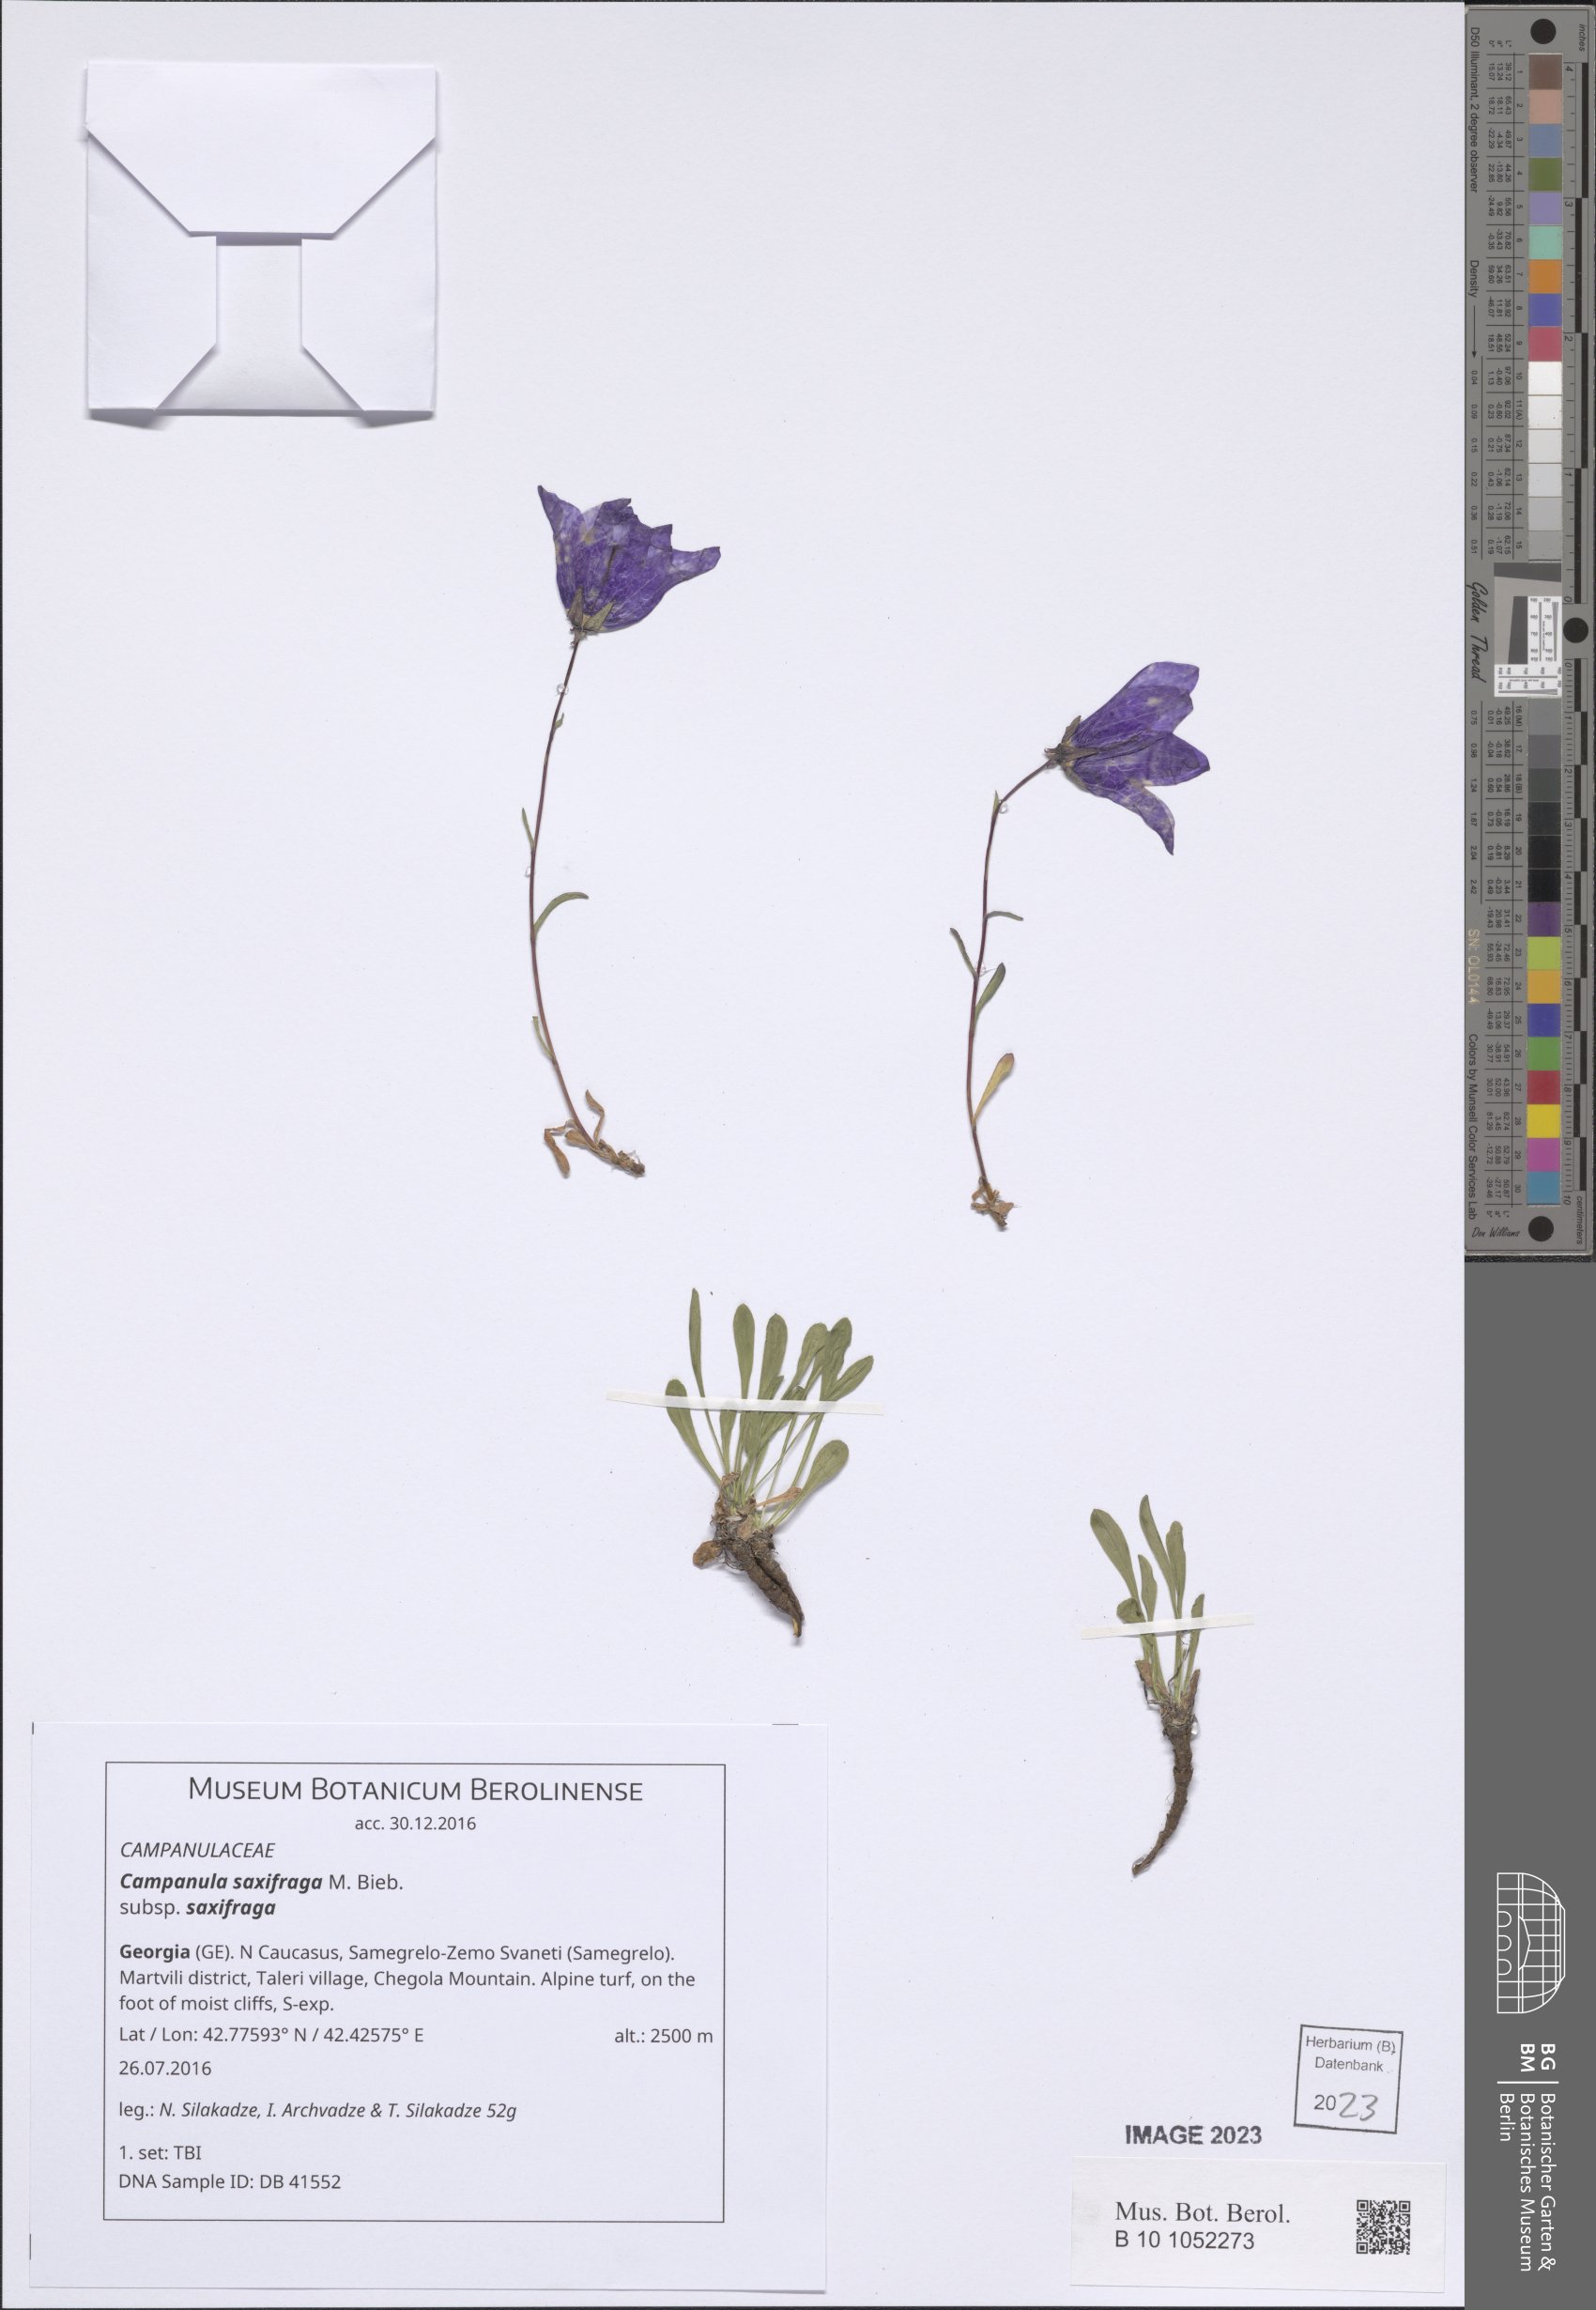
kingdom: Plantae
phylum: Tracheophyta
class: Magnoliopsida
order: Asterales
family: Campanulaceae
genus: Campanula
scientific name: Campanula saxifraga
